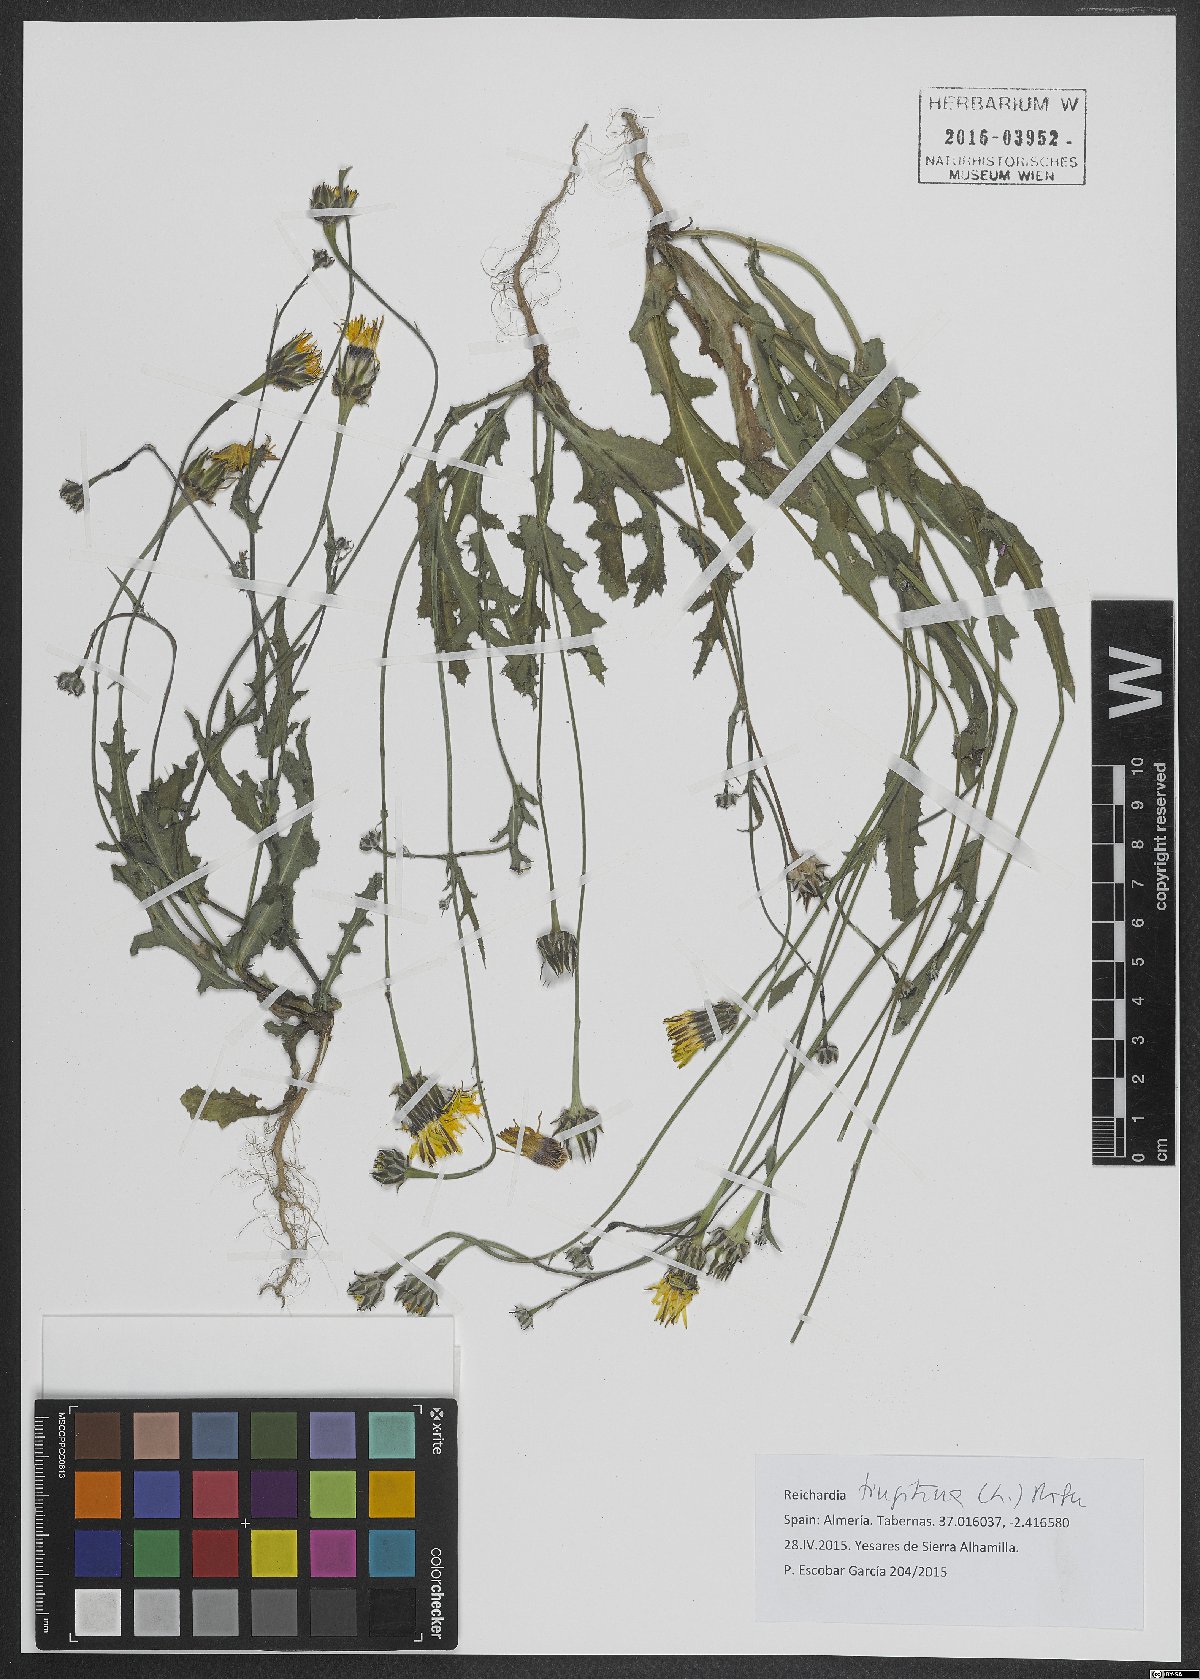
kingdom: Plantae
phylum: Tracheophyta
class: Magnoliopsida
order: Asterales
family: Asteraceae
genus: Reichardia
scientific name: Reichardia tingitana
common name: Reichardia
